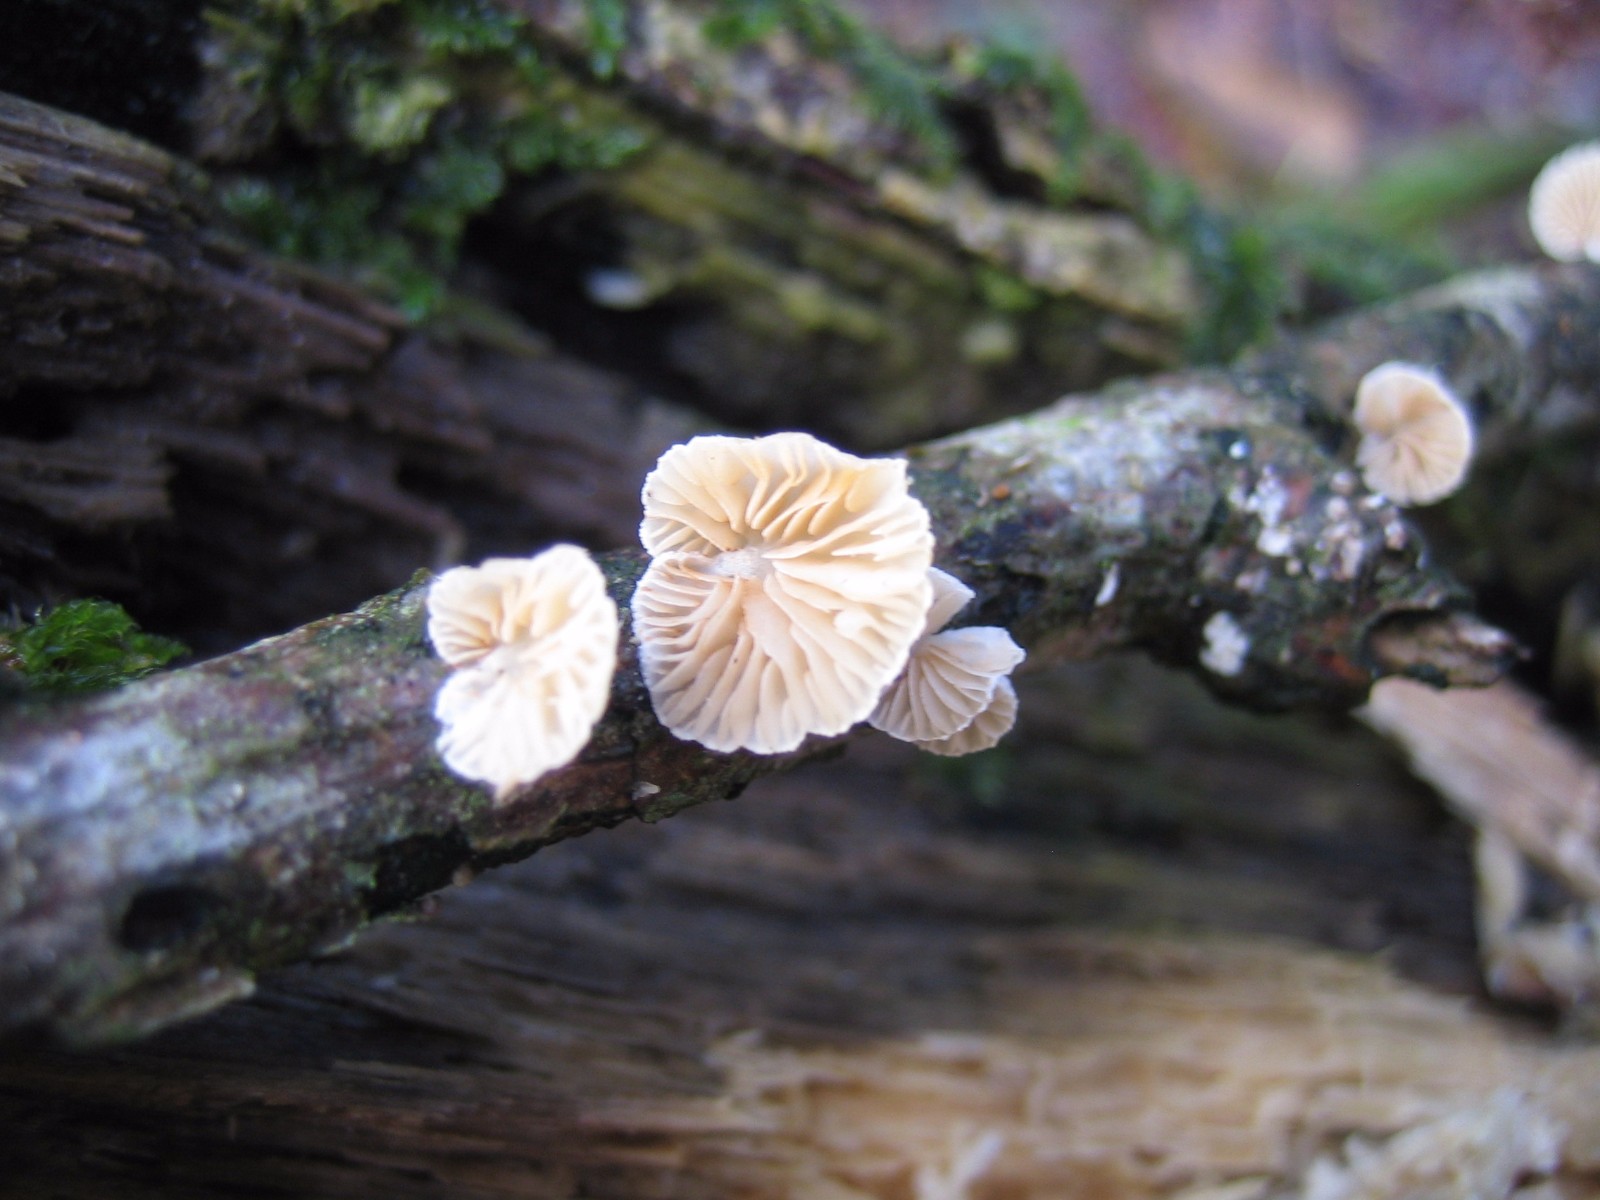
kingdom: Fungi
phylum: Basidiomycota
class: Agaricomycetes
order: Agaricales
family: Crepidotaceae
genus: Crepidotus
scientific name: Crepidotus
